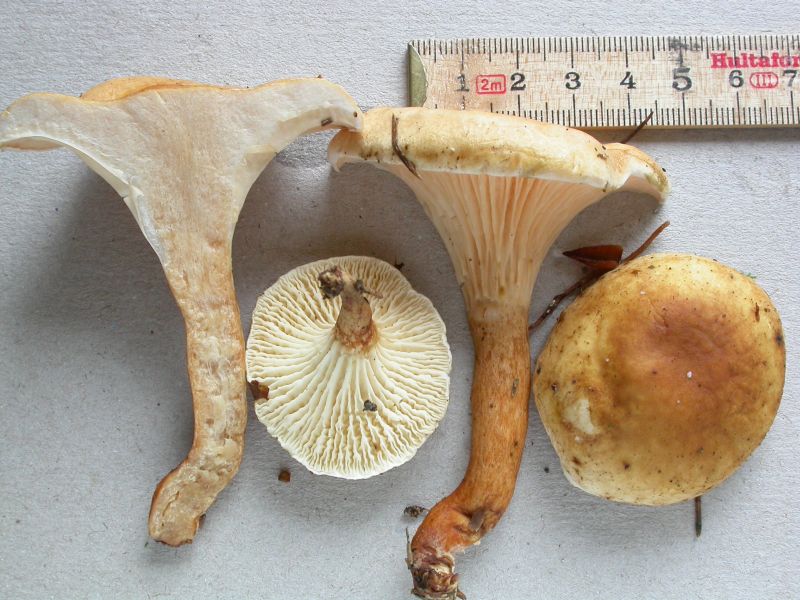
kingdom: Fungi
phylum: Basidiomycota
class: Agaricomycetes
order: Boletales
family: Hygrophoropsidaceae
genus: Hygrophoropsis
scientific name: Hygrophoropsis pallida
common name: bleg orangekantarel
